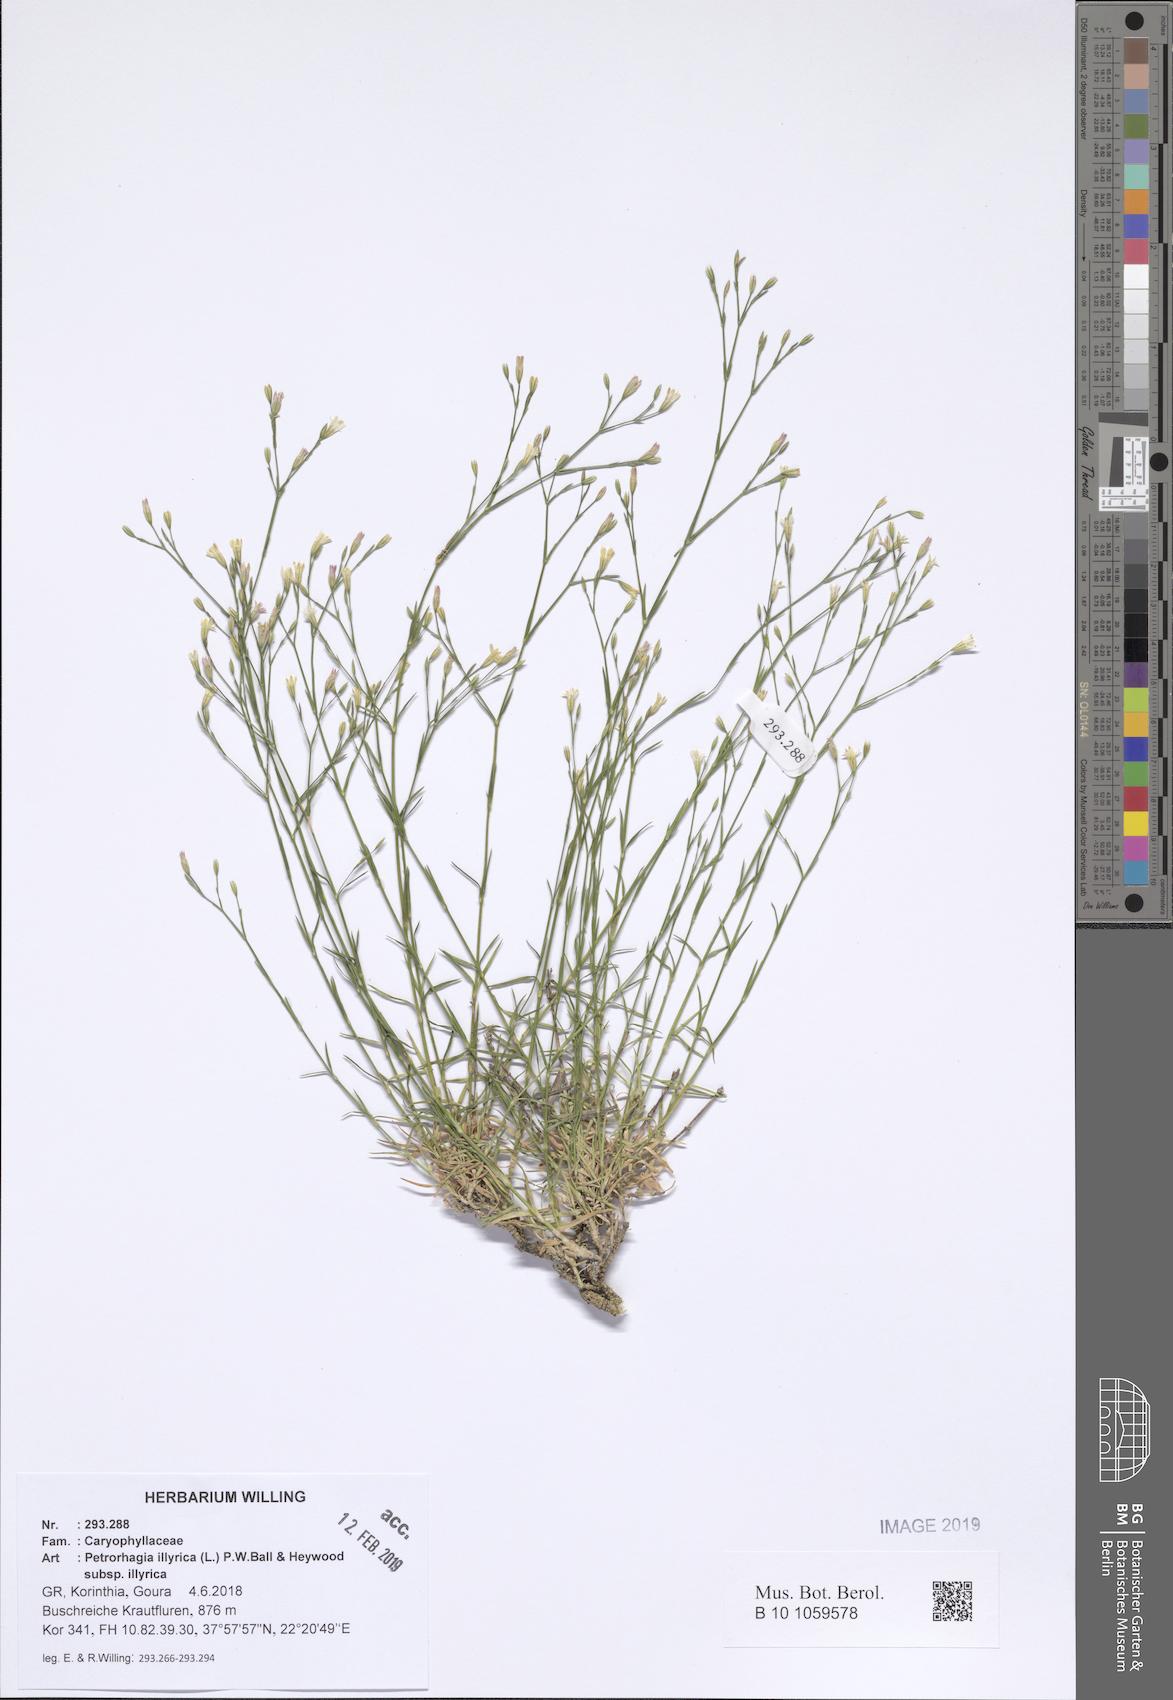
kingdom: Plantae
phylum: Tracheophyta
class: Magnoliopsida
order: Caryophyllales
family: Caryophyllaceae
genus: Dianthus
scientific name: Dianthus illyricus
